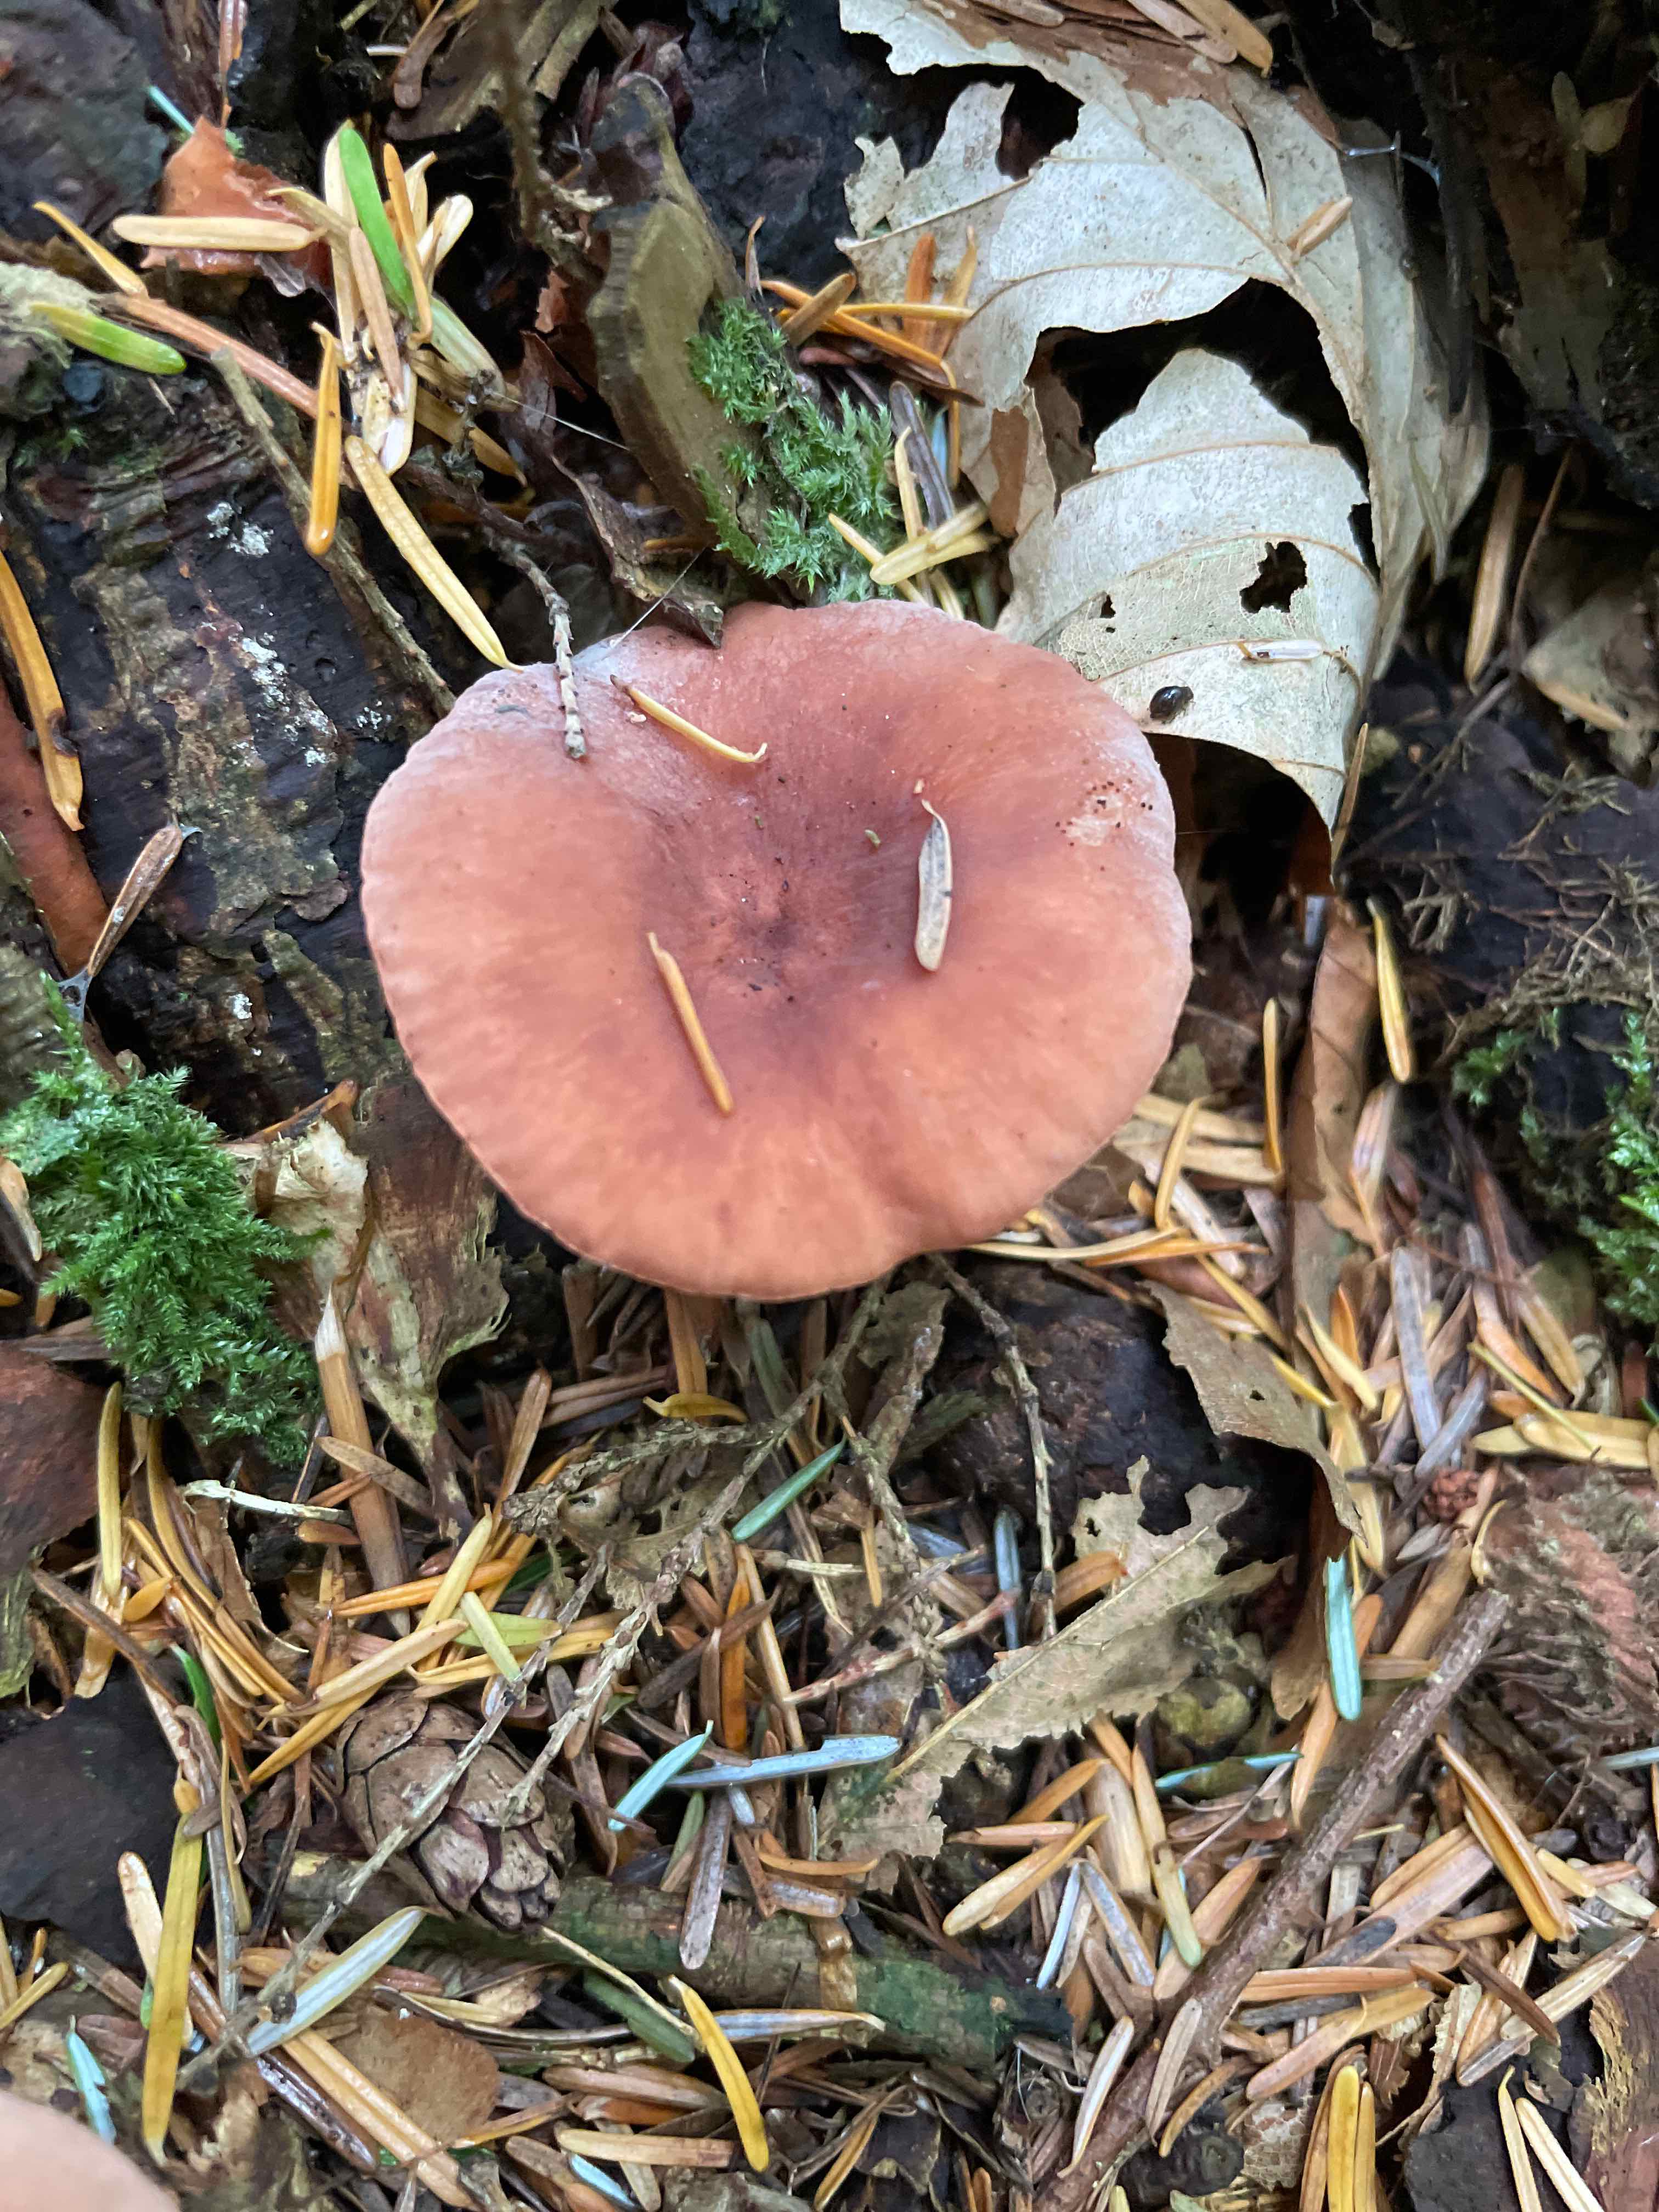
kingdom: Fungi
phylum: Basidiomycota
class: Agaricomycetes
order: Russulales
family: Russulaceae
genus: Lactarius
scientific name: Lactarius camphoratus
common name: kamfer-mælkehat
